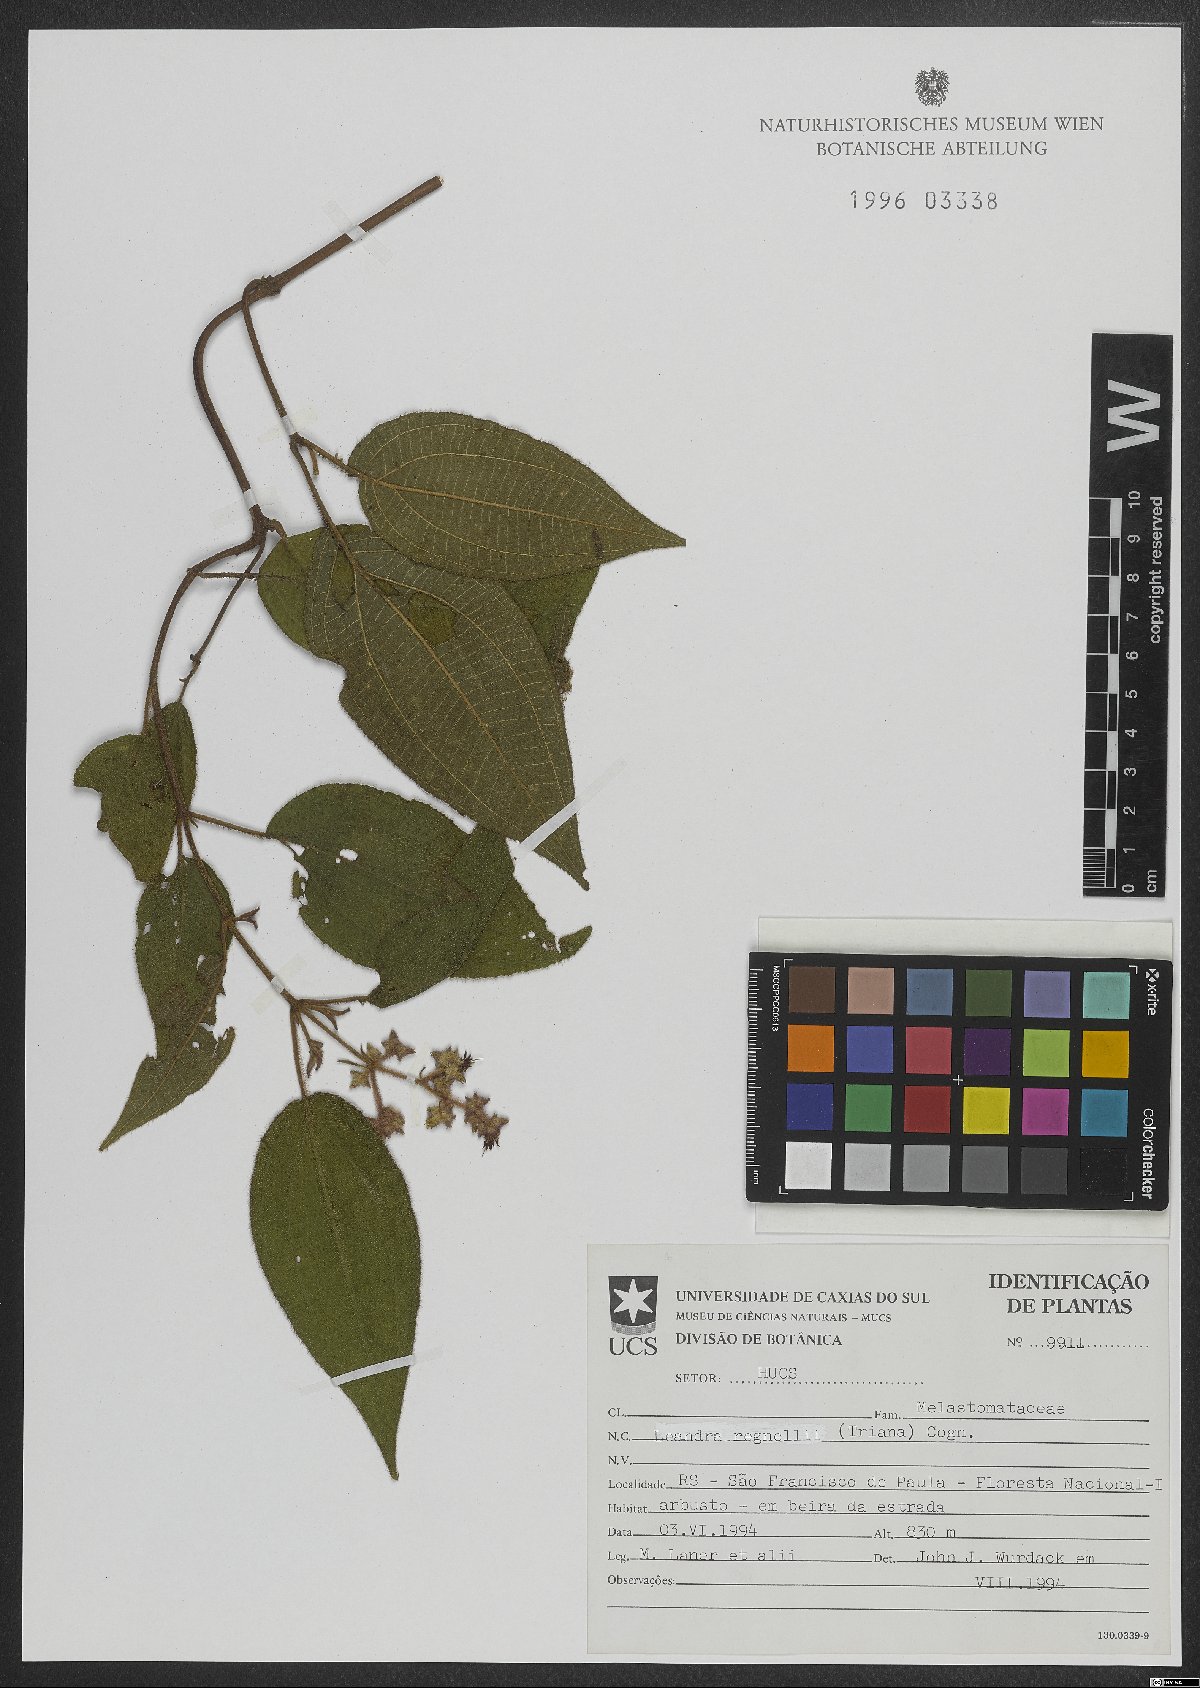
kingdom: Plantae
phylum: Tracheophyta
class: Magnoliopsida
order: Myrtales
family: Melastomataceae
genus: Miconia
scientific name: Miconia alterninervia
